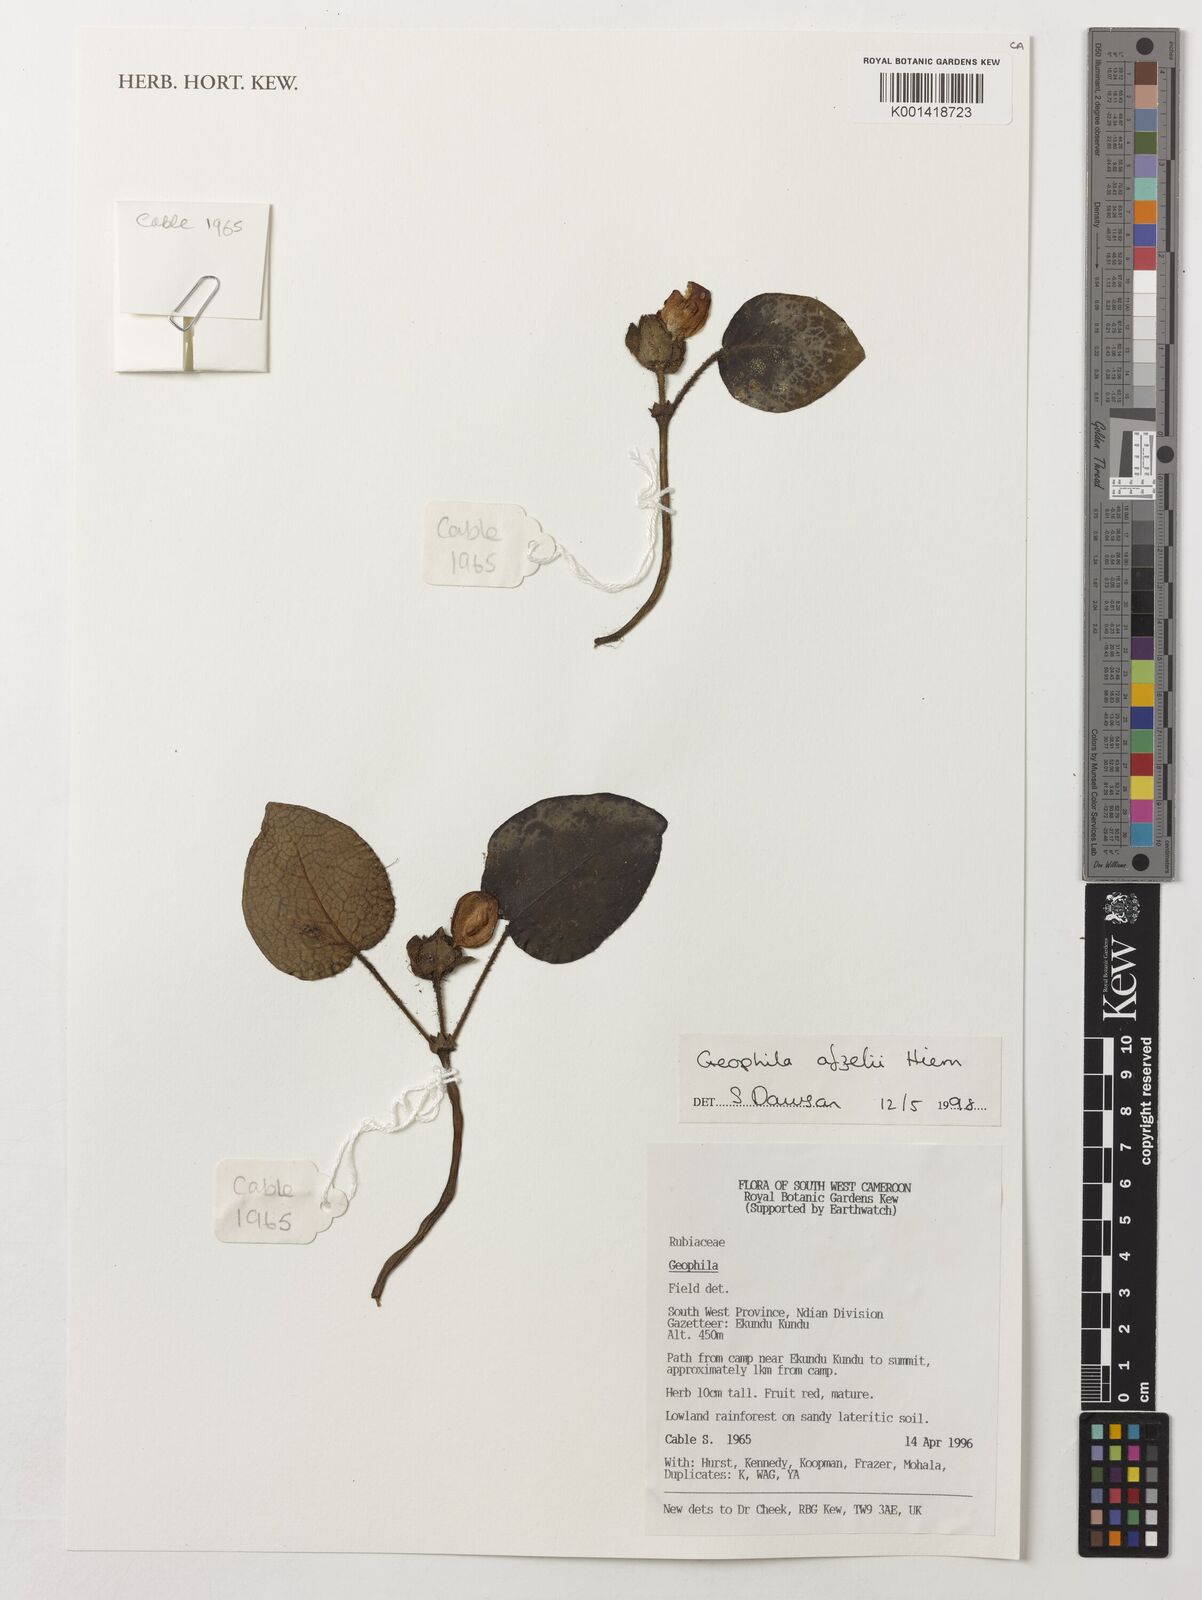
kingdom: Plantae
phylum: Tracheophyta
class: Magnoliopsida
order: Gentianales
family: Rubiaceae
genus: Geophila
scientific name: Geophila afzelii
